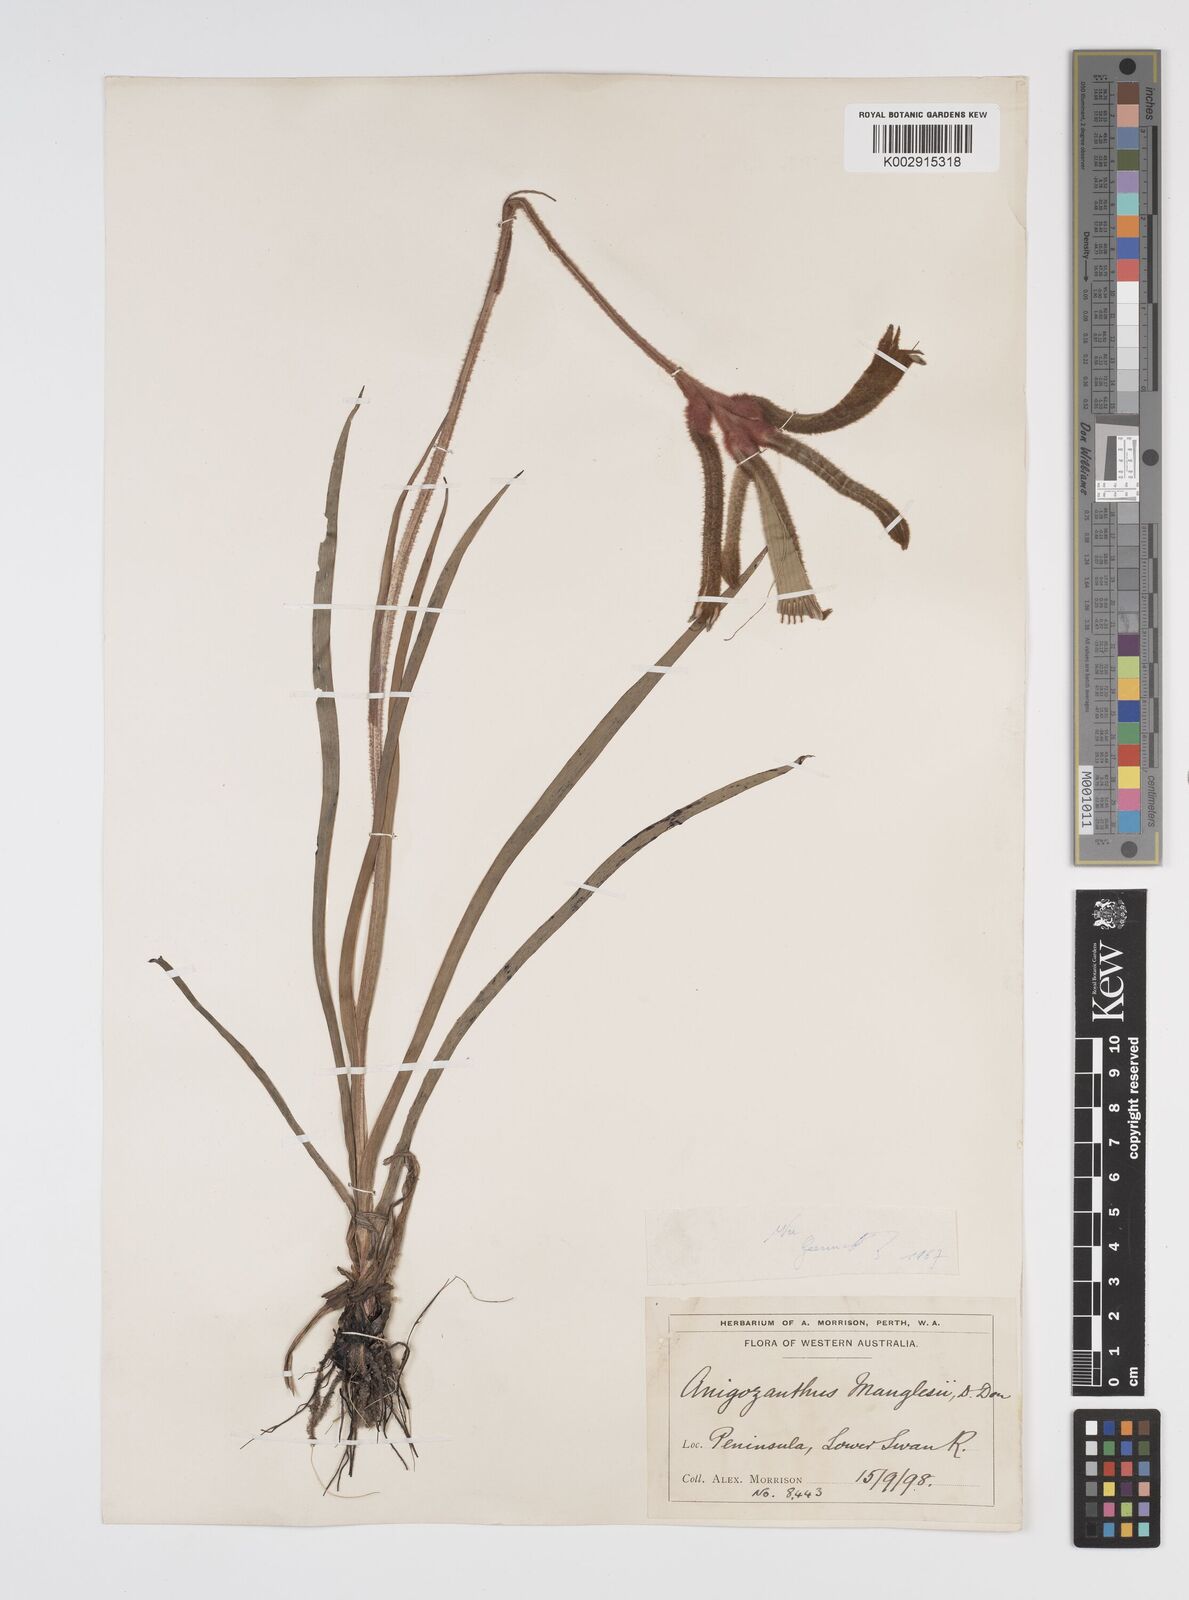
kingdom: Plantae
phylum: Tracheophyta
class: Liliopsida
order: Commelinales
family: Haemodoraceae
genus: Anigozanthos
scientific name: Anigozanthos manglesii
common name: Mangles's kangaroo-paw
